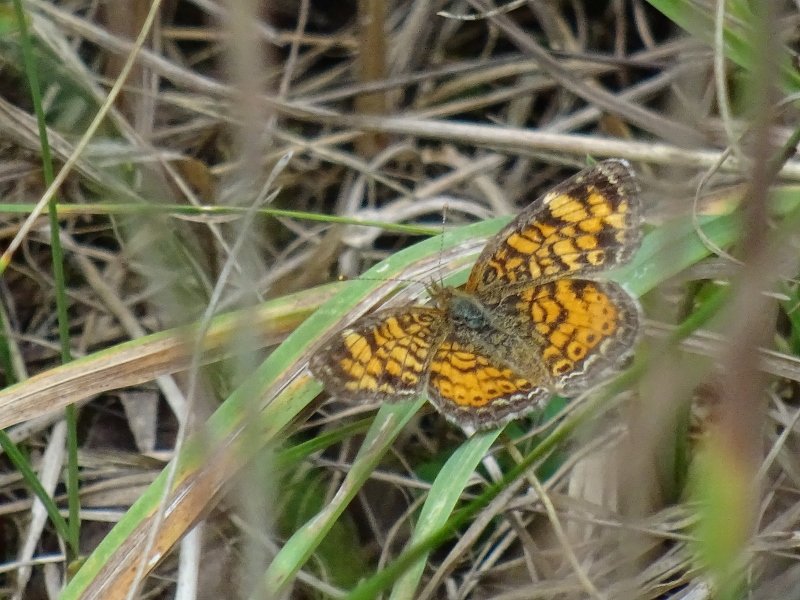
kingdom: Animalia
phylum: Arthropoda
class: Insecta
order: Lepidoptera
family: Nymphalidae
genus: Phyciodes
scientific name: Phyciodes tharos
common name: Northern Crescent
